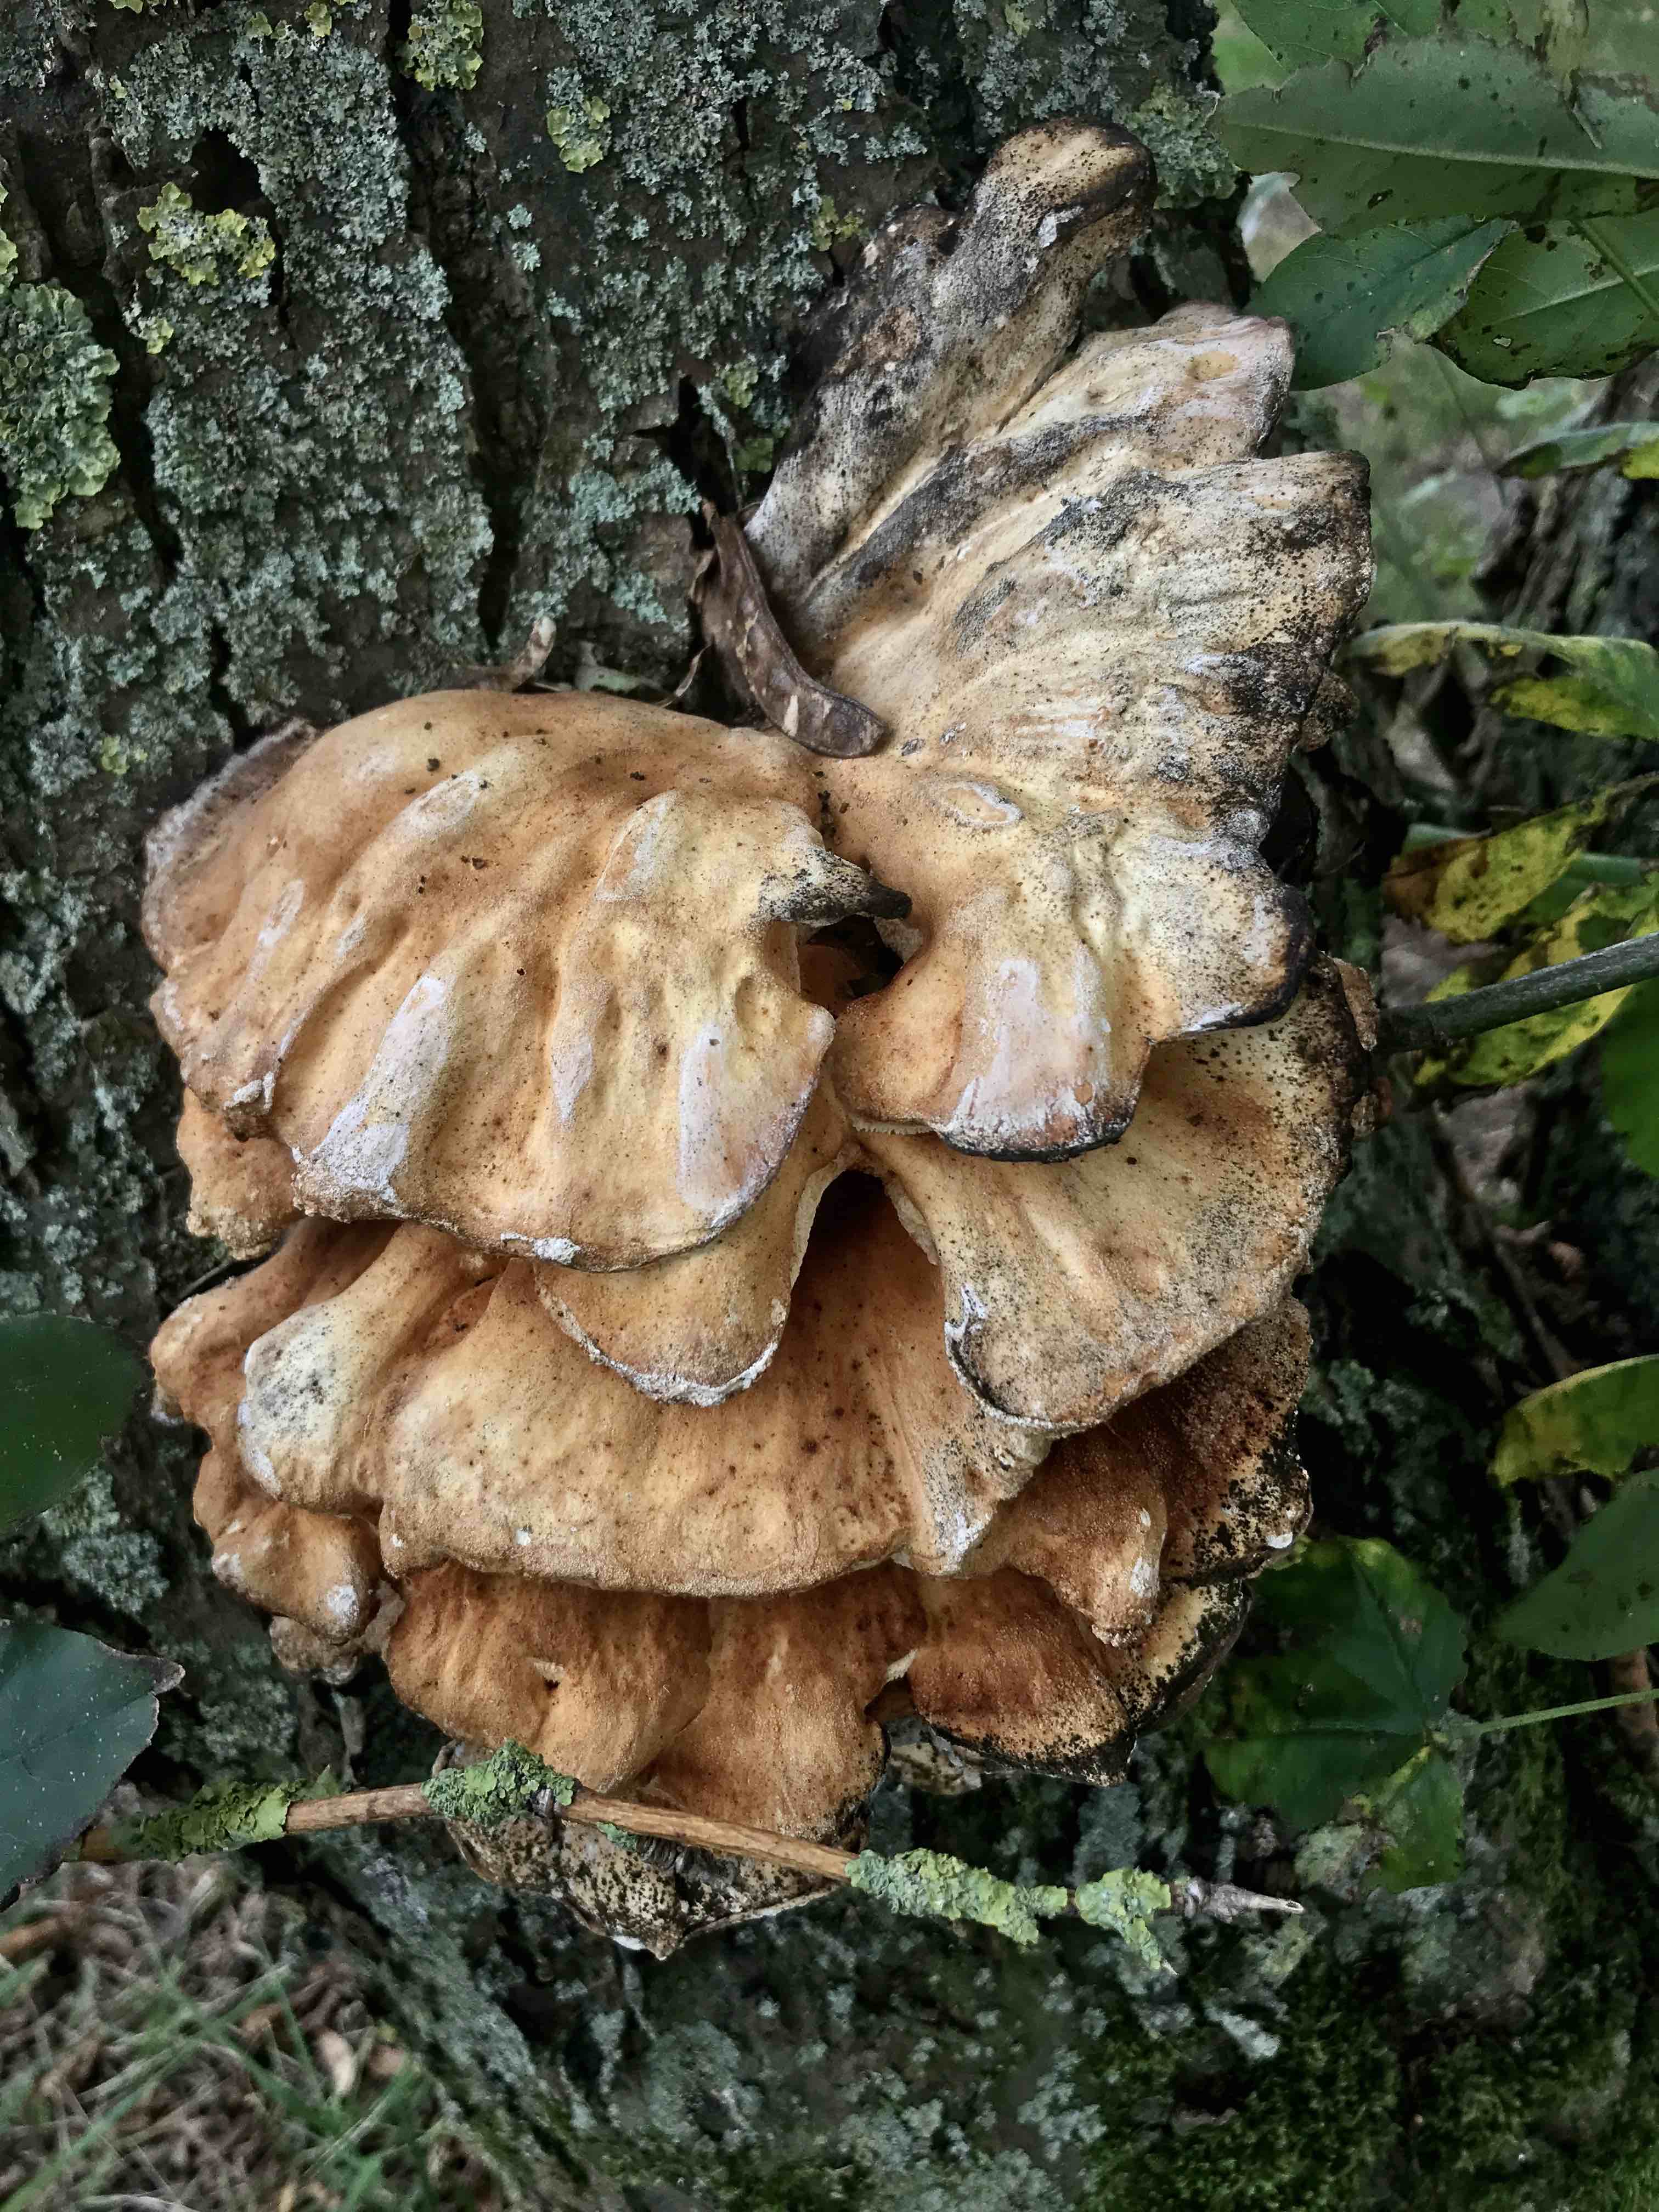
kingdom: Fungi
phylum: Basidiomycota
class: Agaricomycetes
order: Polyporales
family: Laetiporaceae
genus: Laetiporus
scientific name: Laetiporus sulphureus
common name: svovlporesvamp
